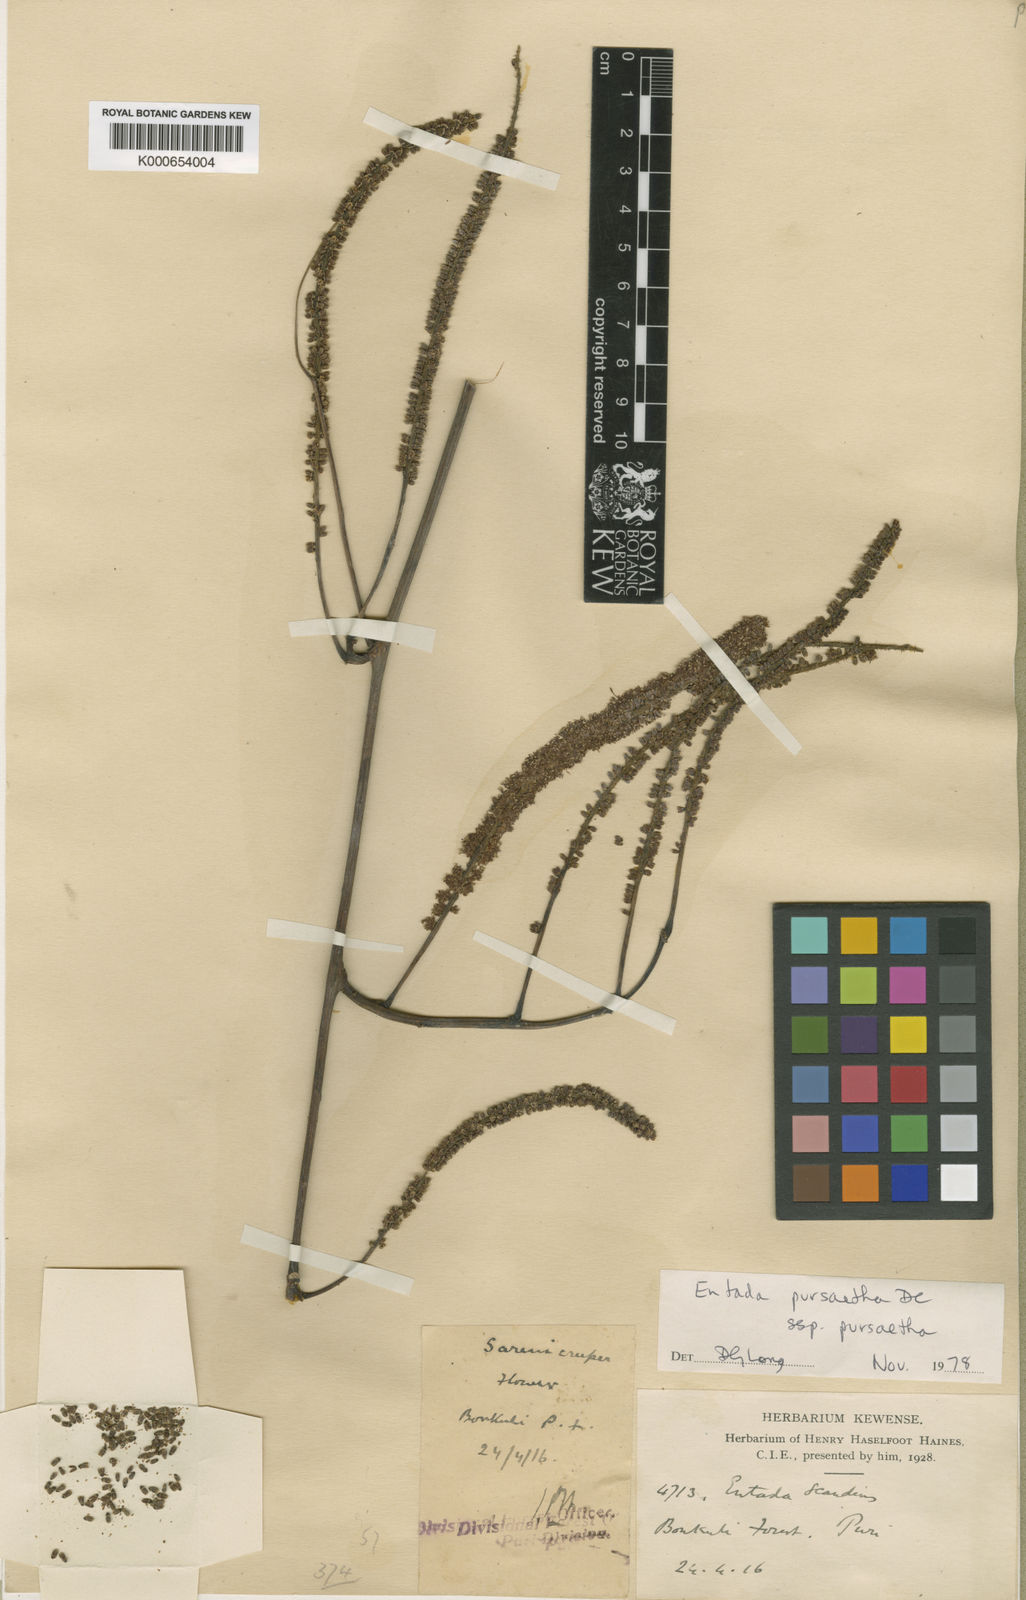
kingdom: Plantae
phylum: Tracheophyta
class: Magnoliopsida
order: Fabales
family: Fabaceae
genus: Entada
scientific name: Entada phaseoloides
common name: Matchbox-bean
